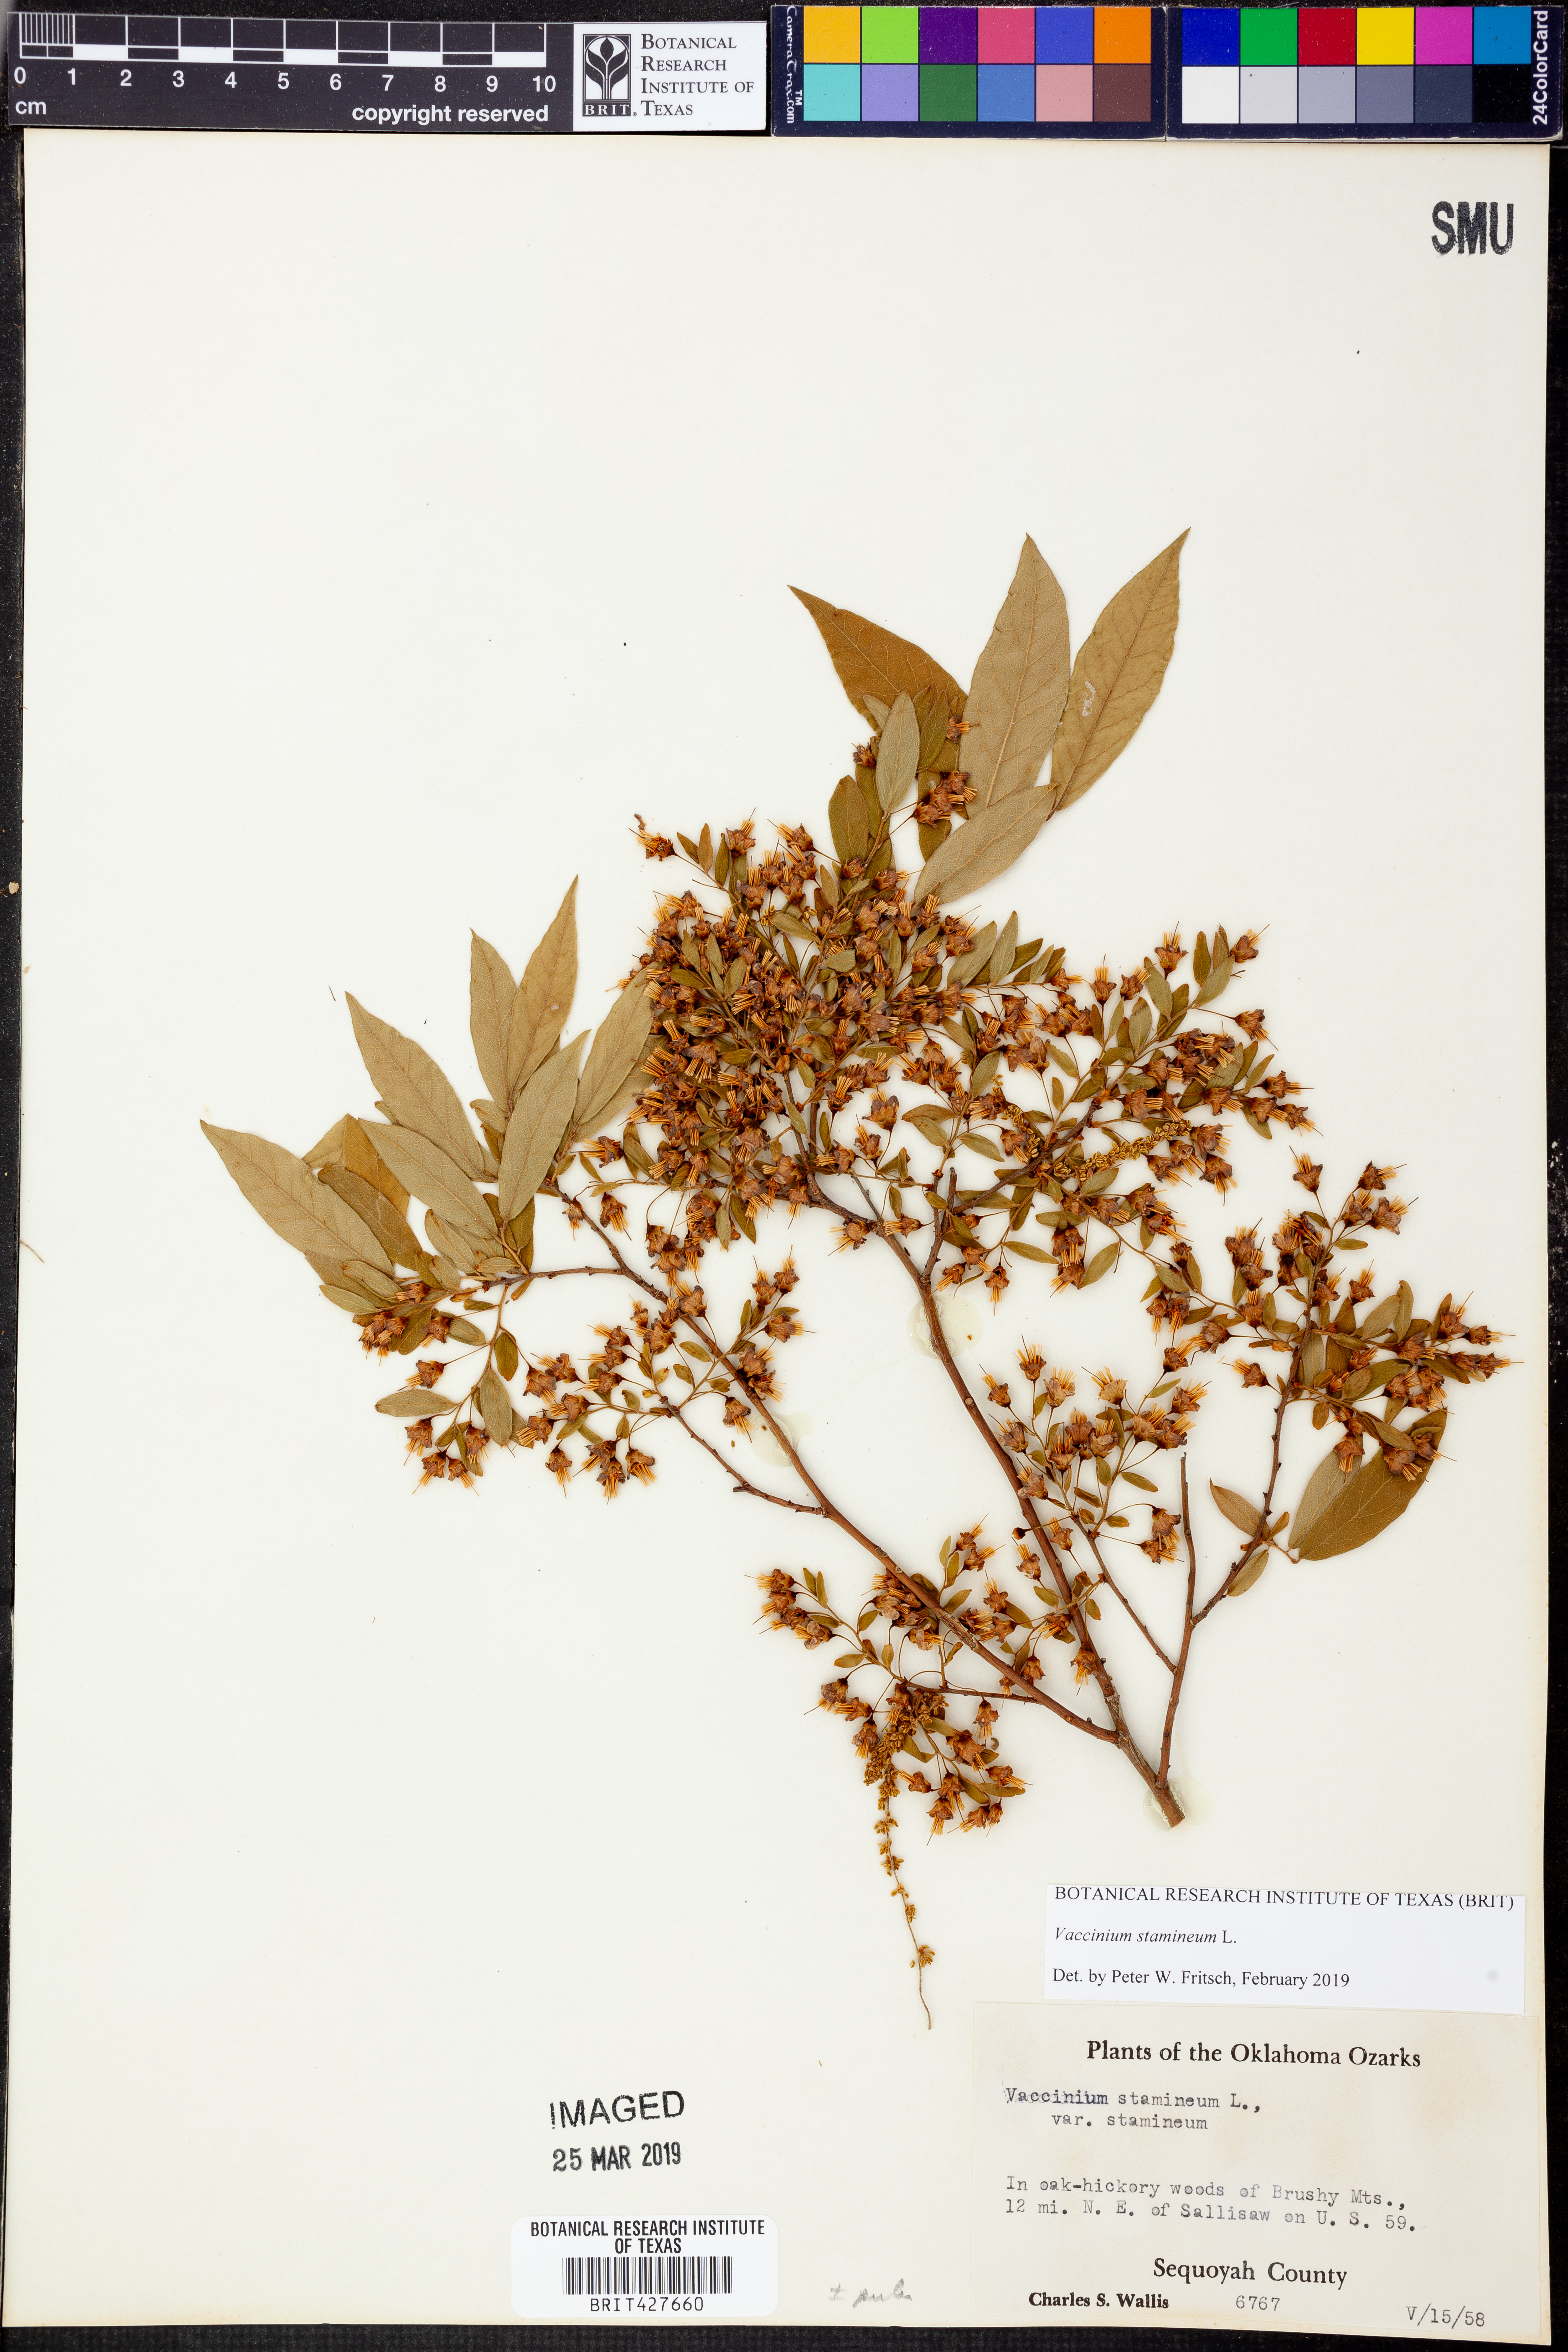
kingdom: Plantae
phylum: Tracheophyta
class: Magnoliopsida
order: Ericales
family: Ericaceae
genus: Vaccinium
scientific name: Vaccinium stamineum
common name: Deerberry
